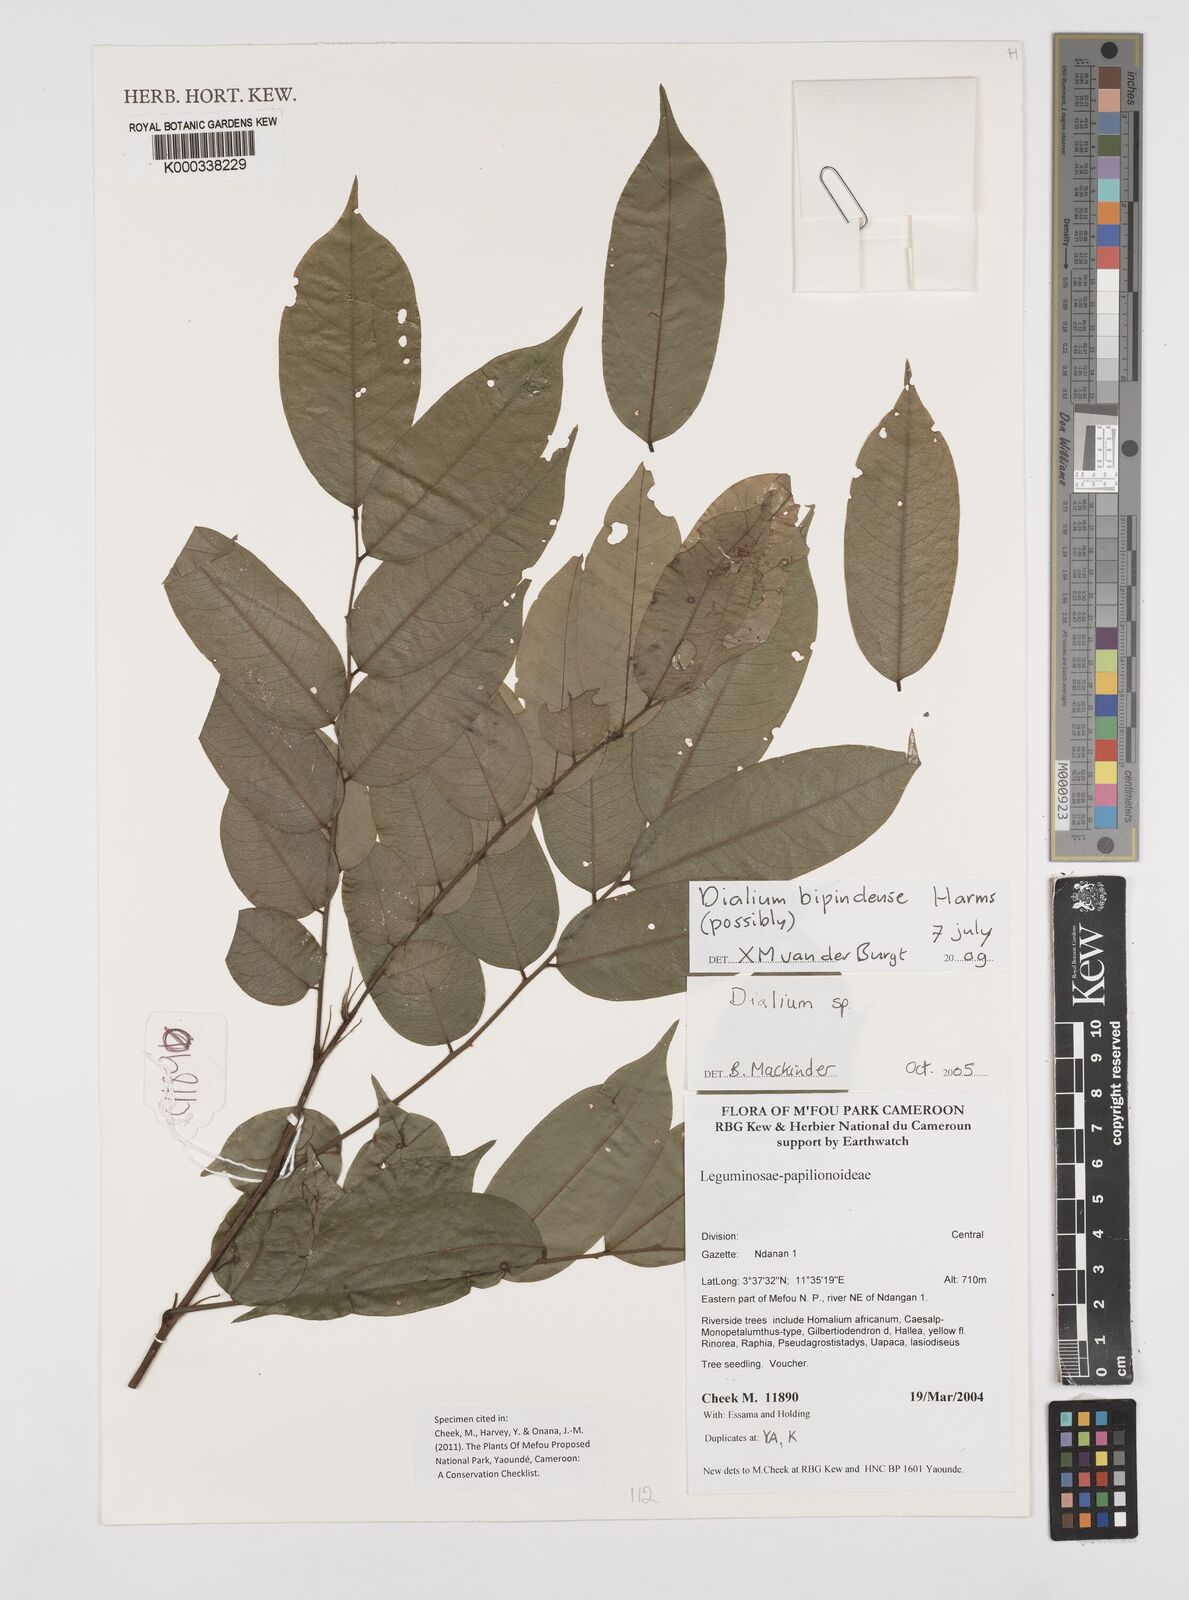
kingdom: Plantae
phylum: Tracheophyta
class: Magnoliopsida
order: Fabales
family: Fabaceae
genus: Dialium
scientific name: Dialium bipindense
